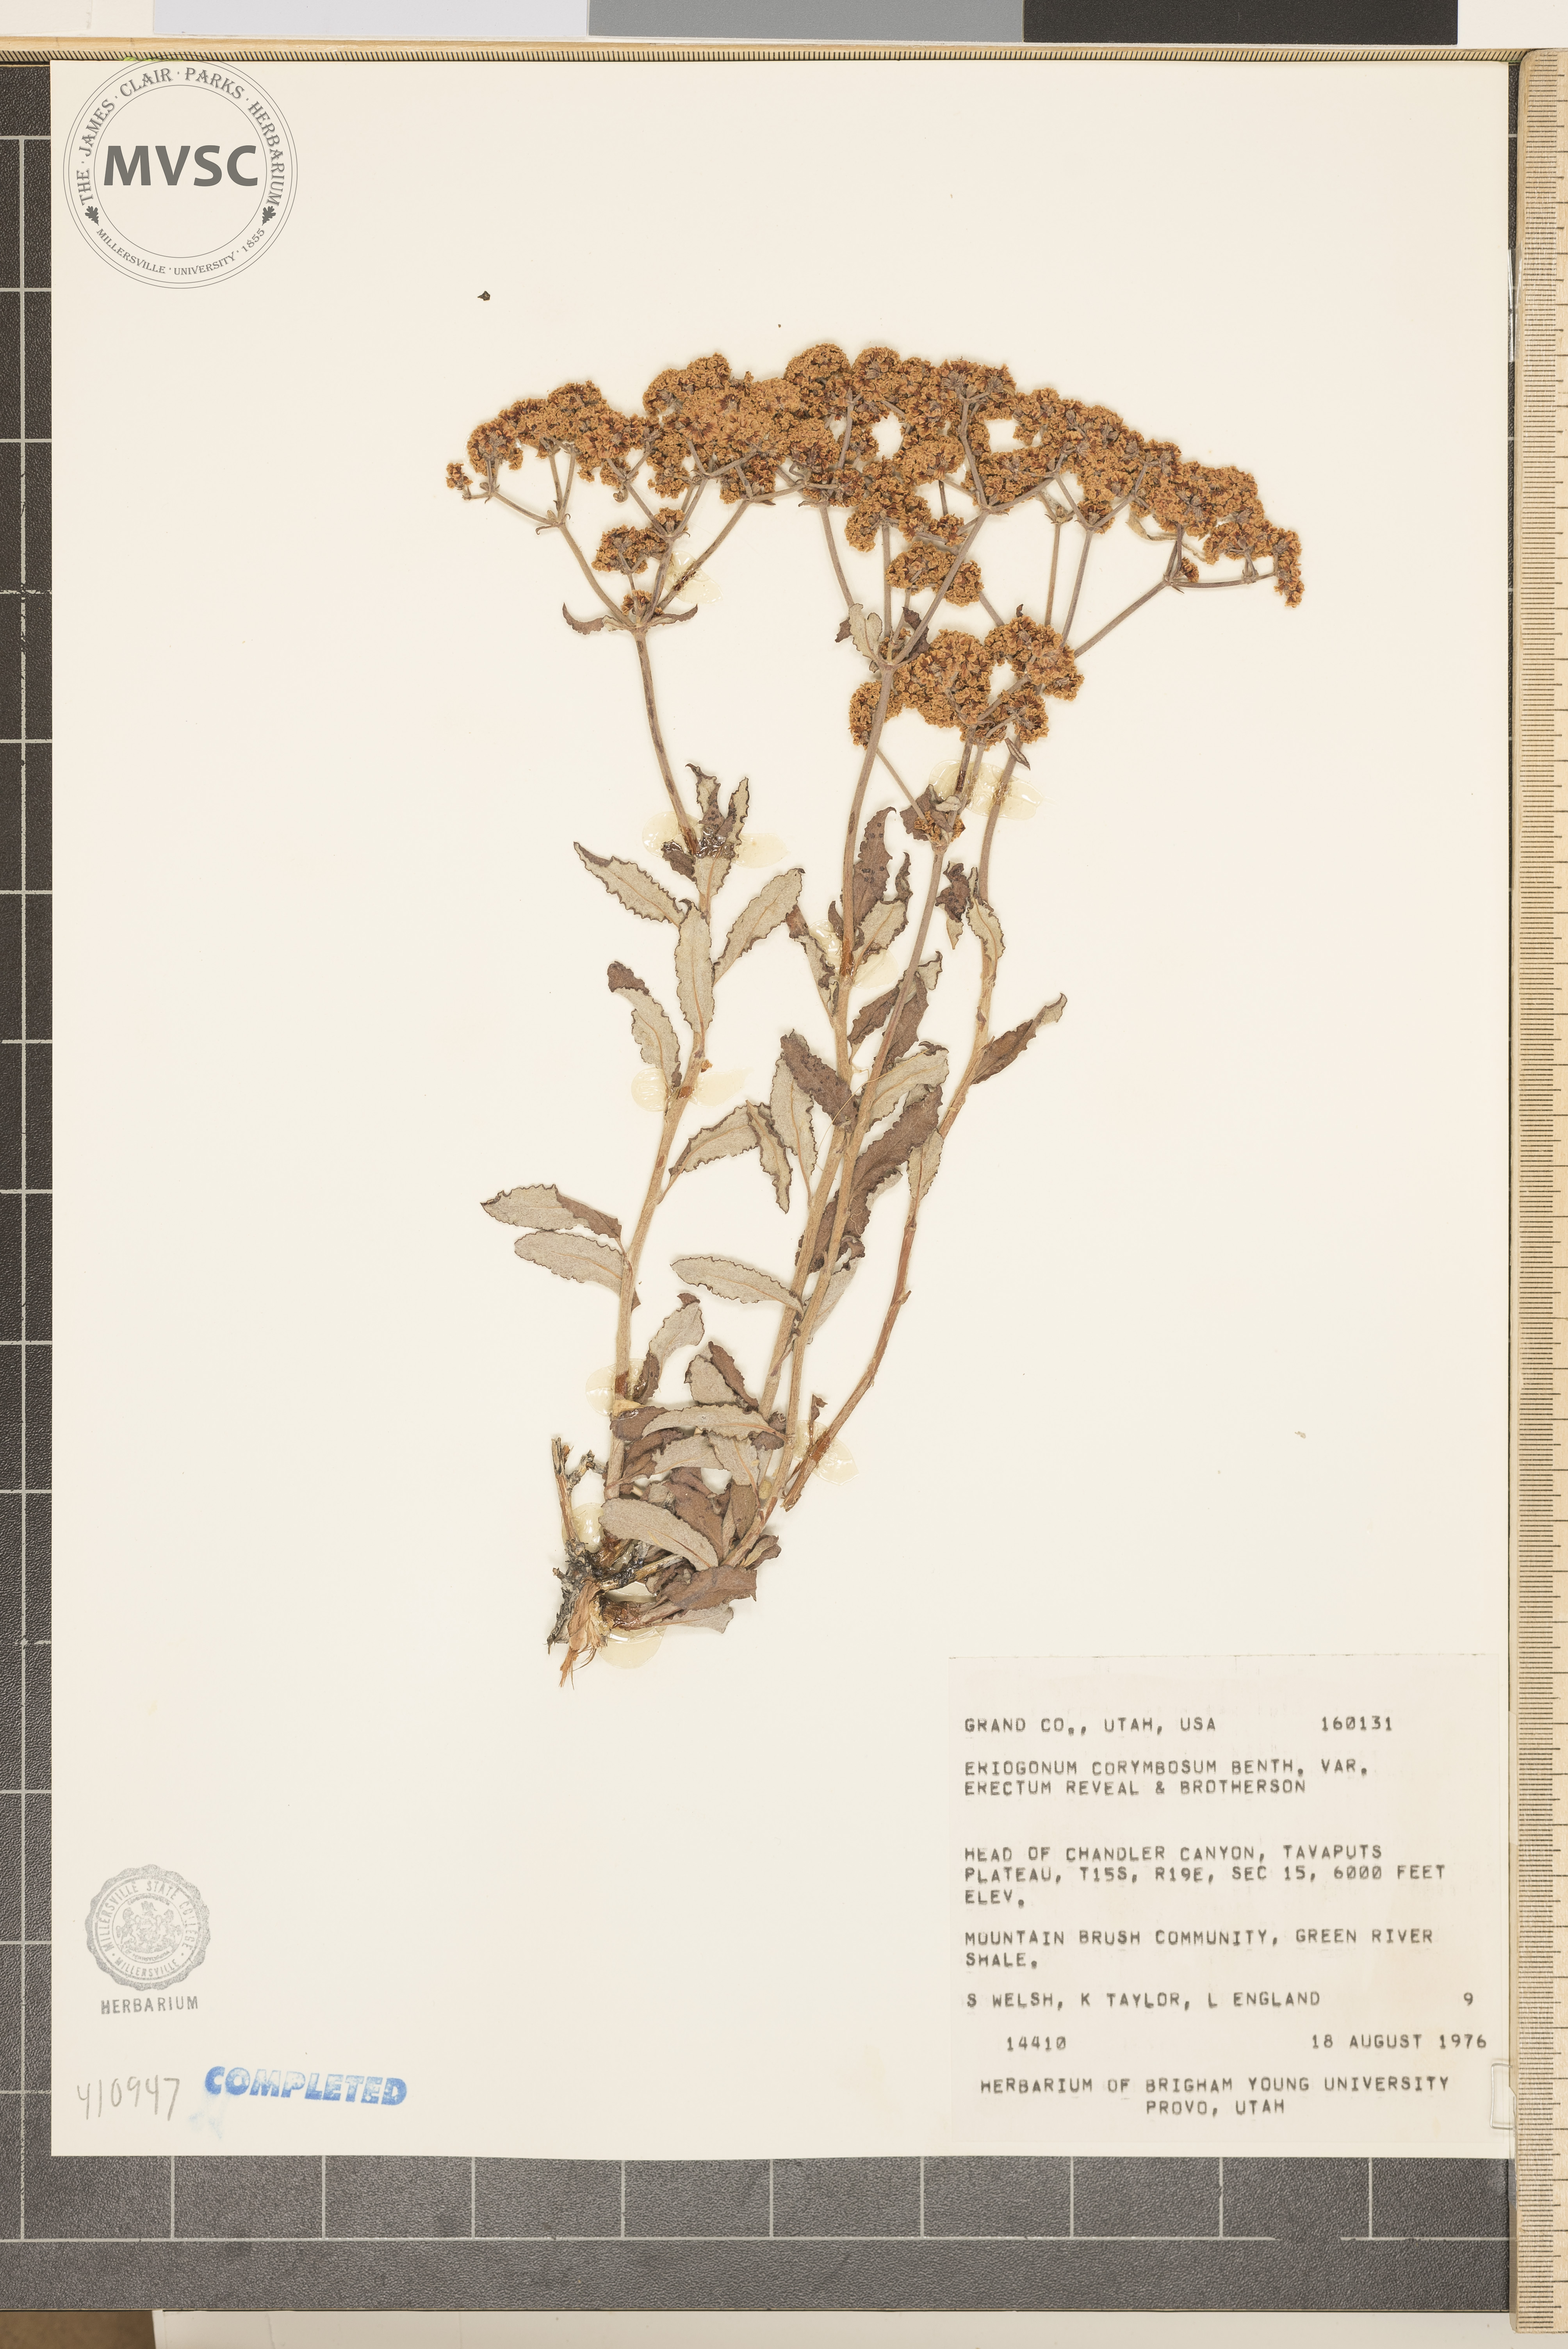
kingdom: Plantae
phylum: Tracheophyta
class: Magnoliopsida
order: Caryophyllales
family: Polygonaceae
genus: Eriogonum
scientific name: Eriogonum corymbosum
